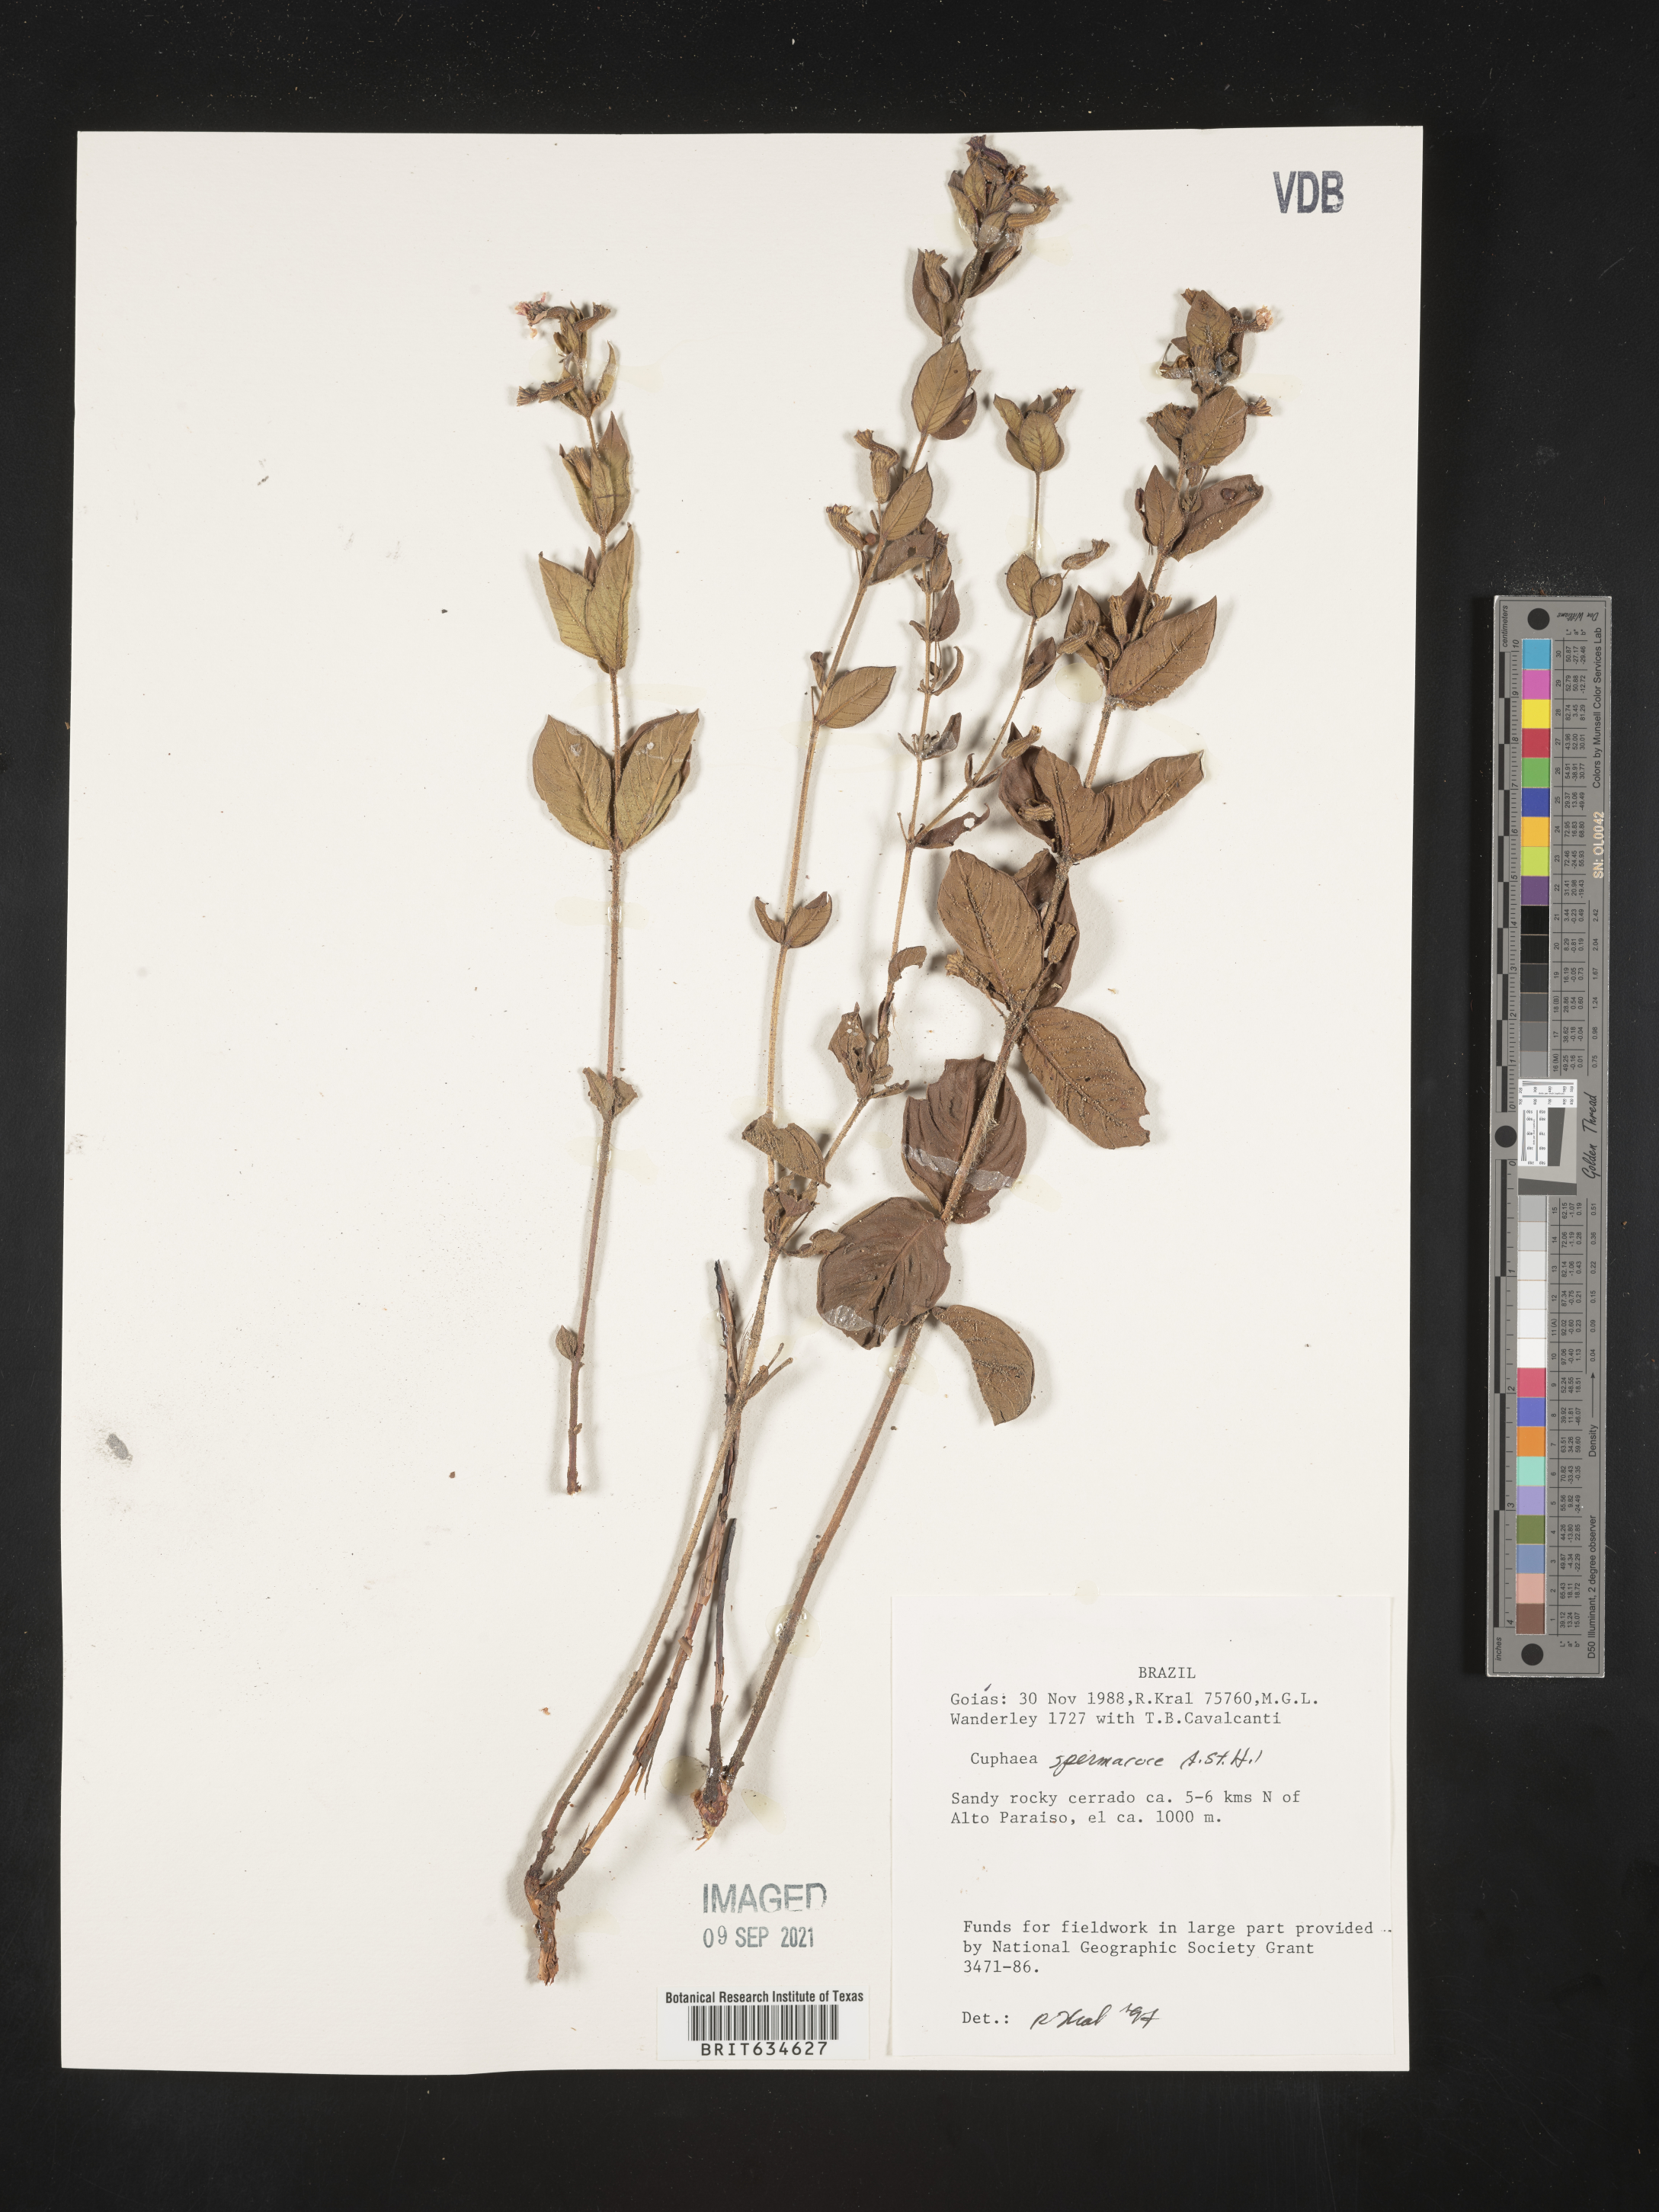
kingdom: Plantae
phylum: Tracheophyta
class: Magnoliopsida
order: Myrtales
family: Lythraceae
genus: Cuphea
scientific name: Cuphea
